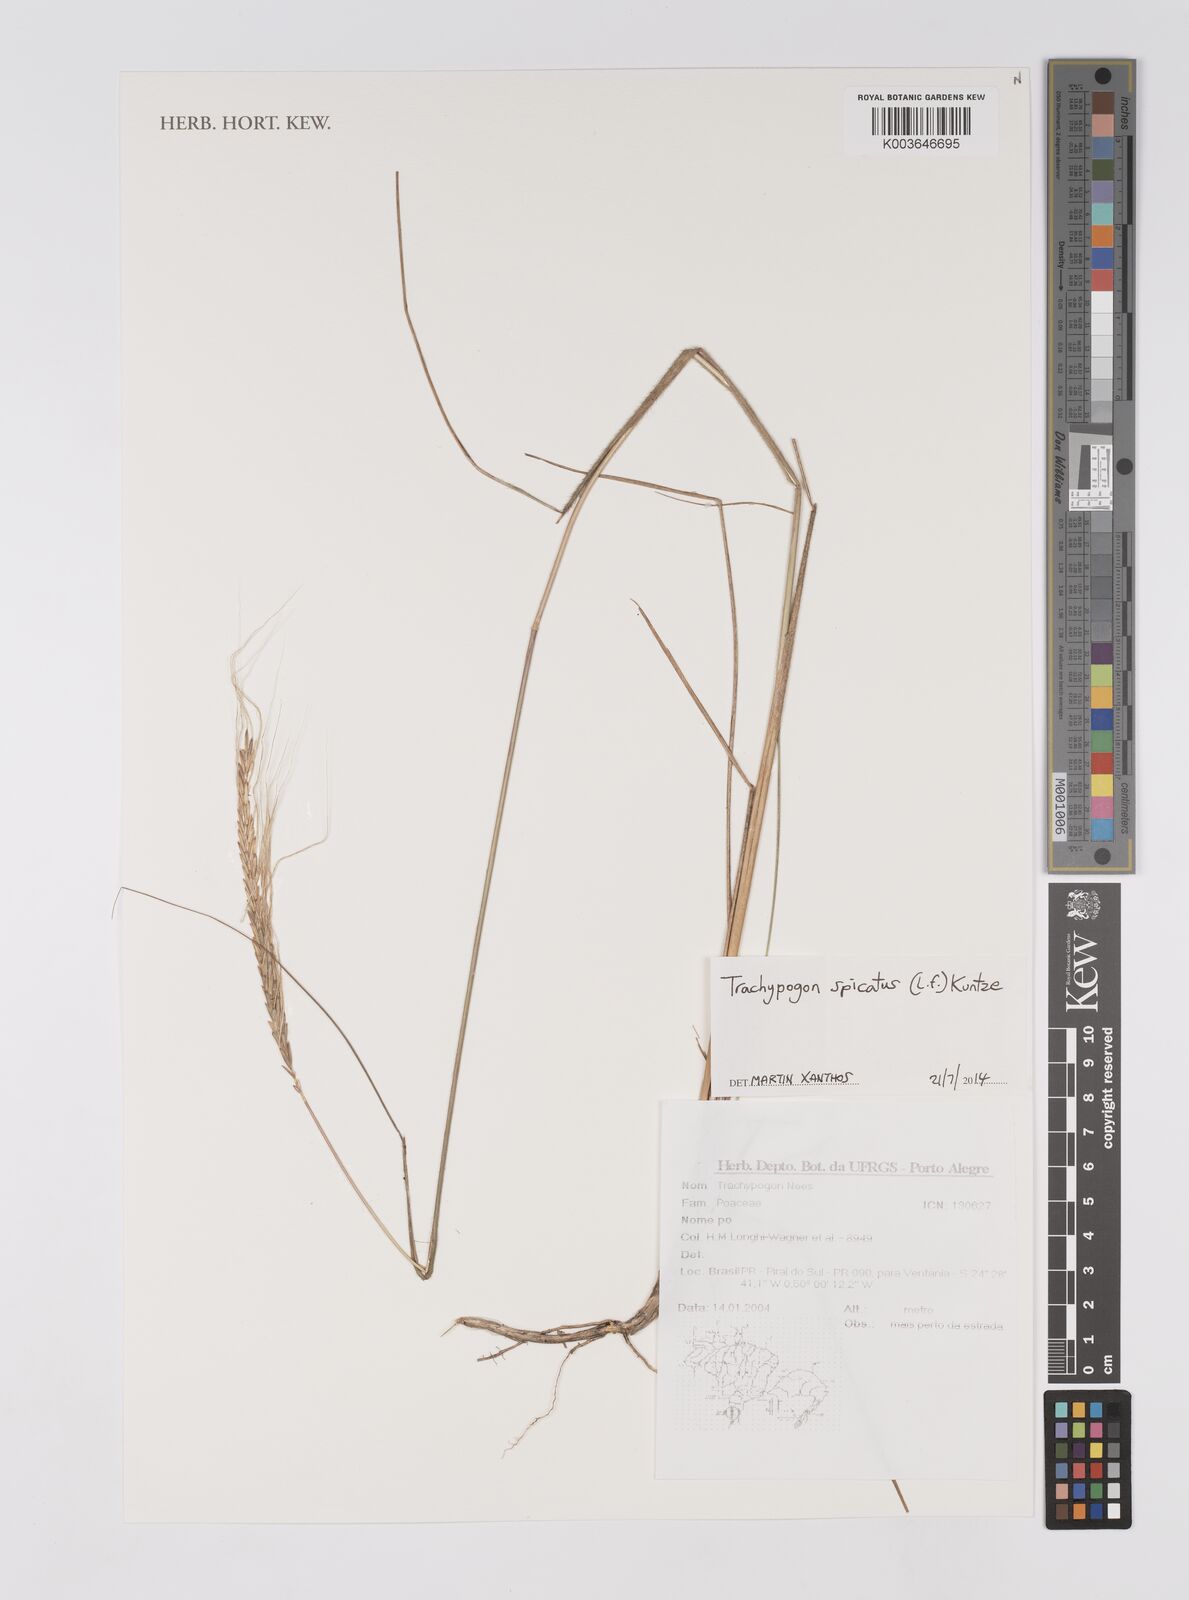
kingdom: Plantae
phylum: Tracheophyta
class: Liliopsida
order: Poales
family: Poaceae
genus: Trachypogon
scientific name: Trachypogon spicatus
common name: Crinkle-awn
